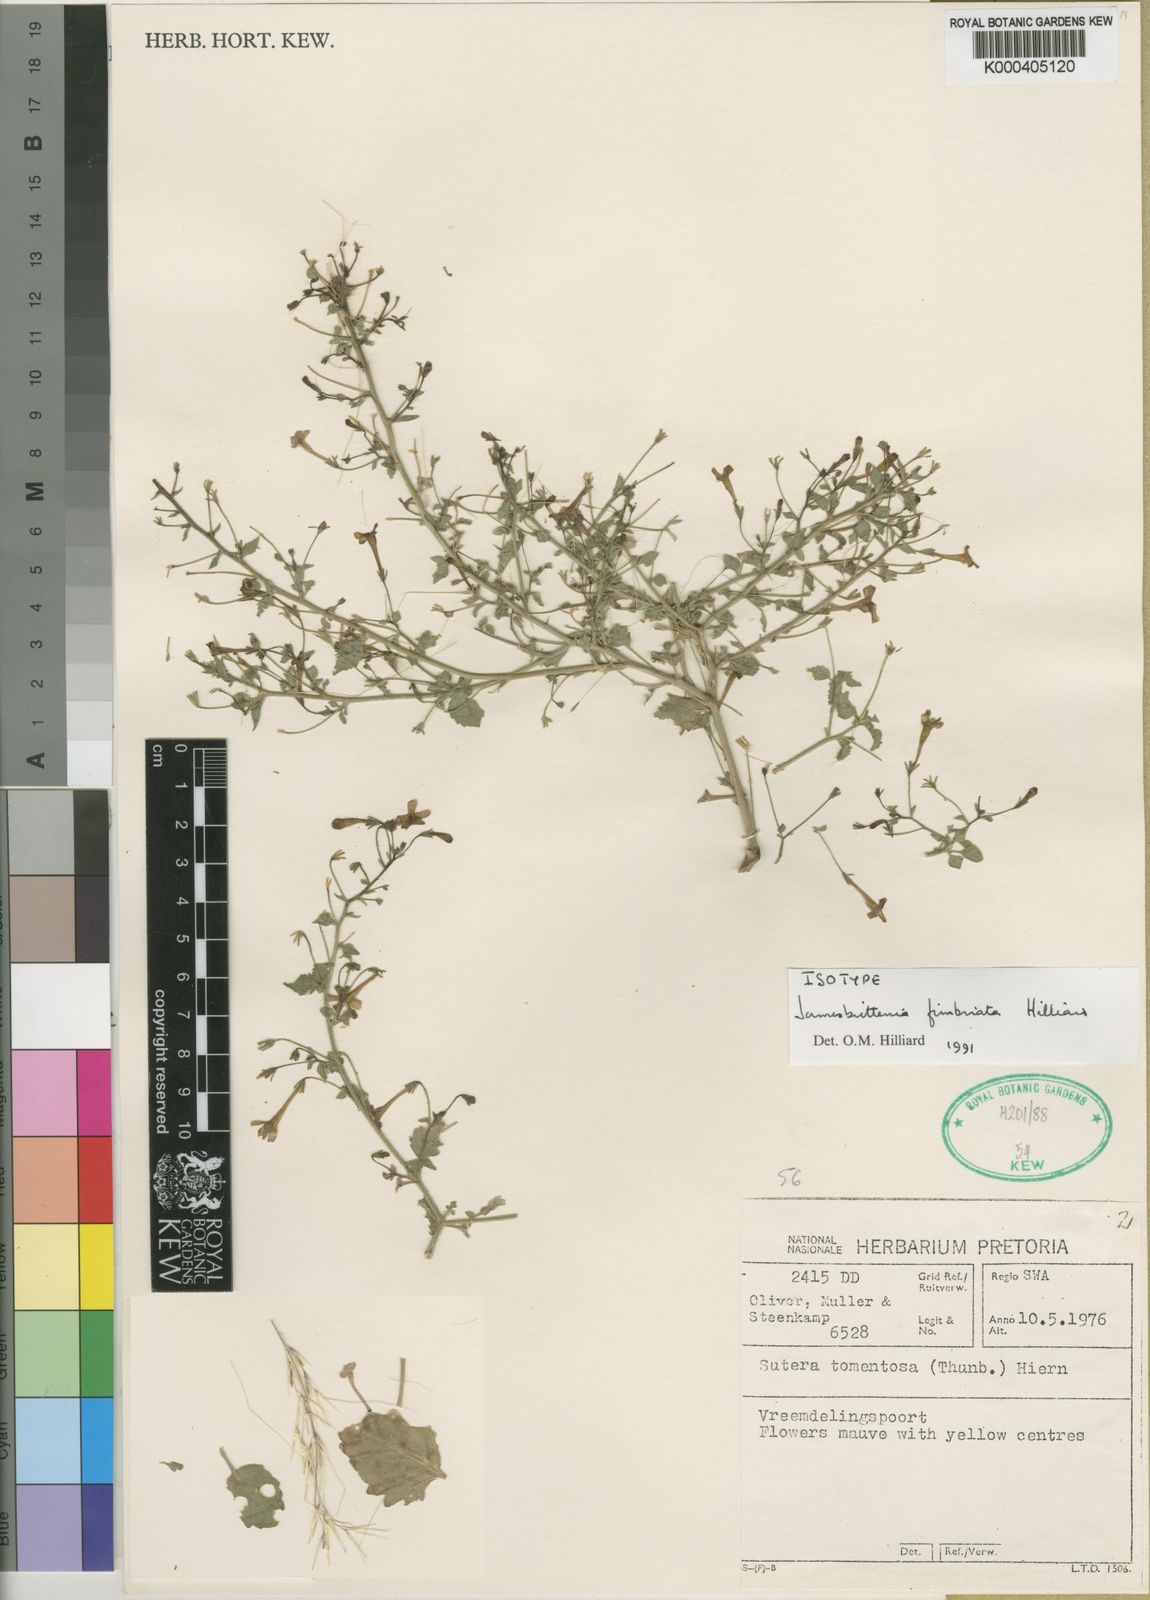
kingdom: Plantae
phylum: Tracheophyta
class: Magnoliopsida
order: Lamiales
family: Scrophulariaceae
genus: Jamesbrittenia
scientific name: Jamesbrittenia fimbriata
